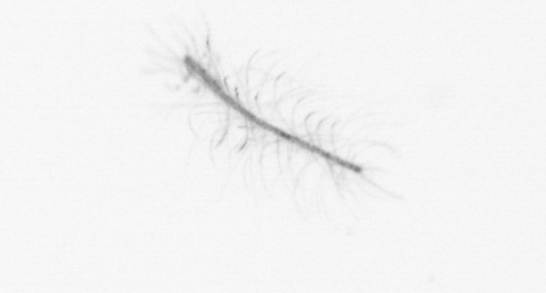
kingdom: Chromista
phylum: Ochrophyta
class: Bacillariophyceae
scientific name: Bacillariophyceae
